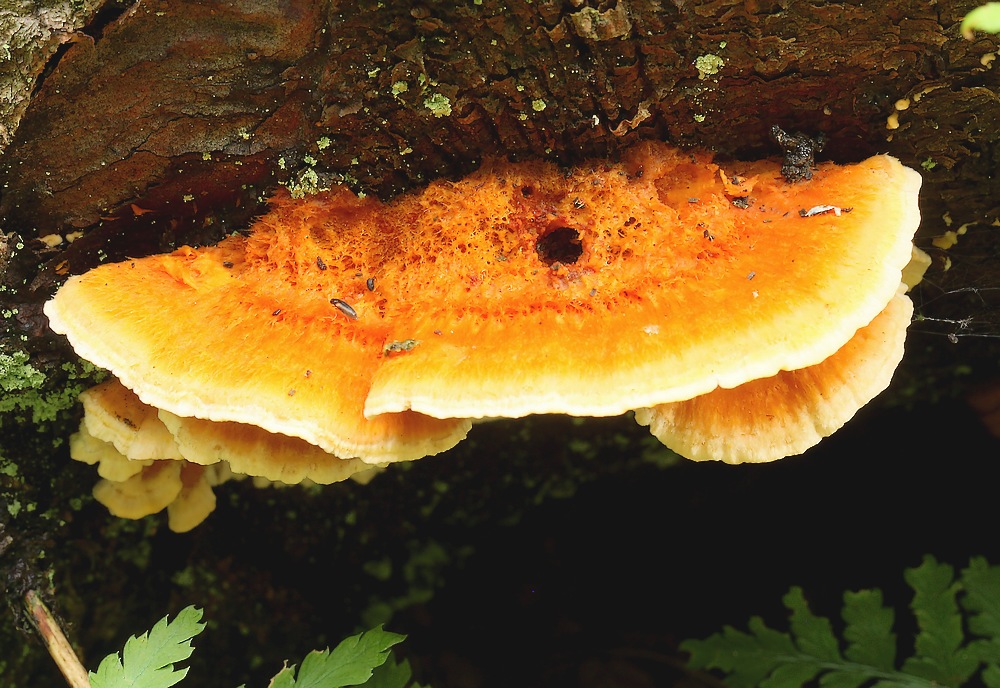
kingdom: Fungi
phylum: Basidiomycota
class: Agaricomycetes
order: Polyporales
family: Pycnoporellaceae
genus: Pycnoporellus
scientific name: Pycnoporellus fulgens
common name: flammeporesvamp
